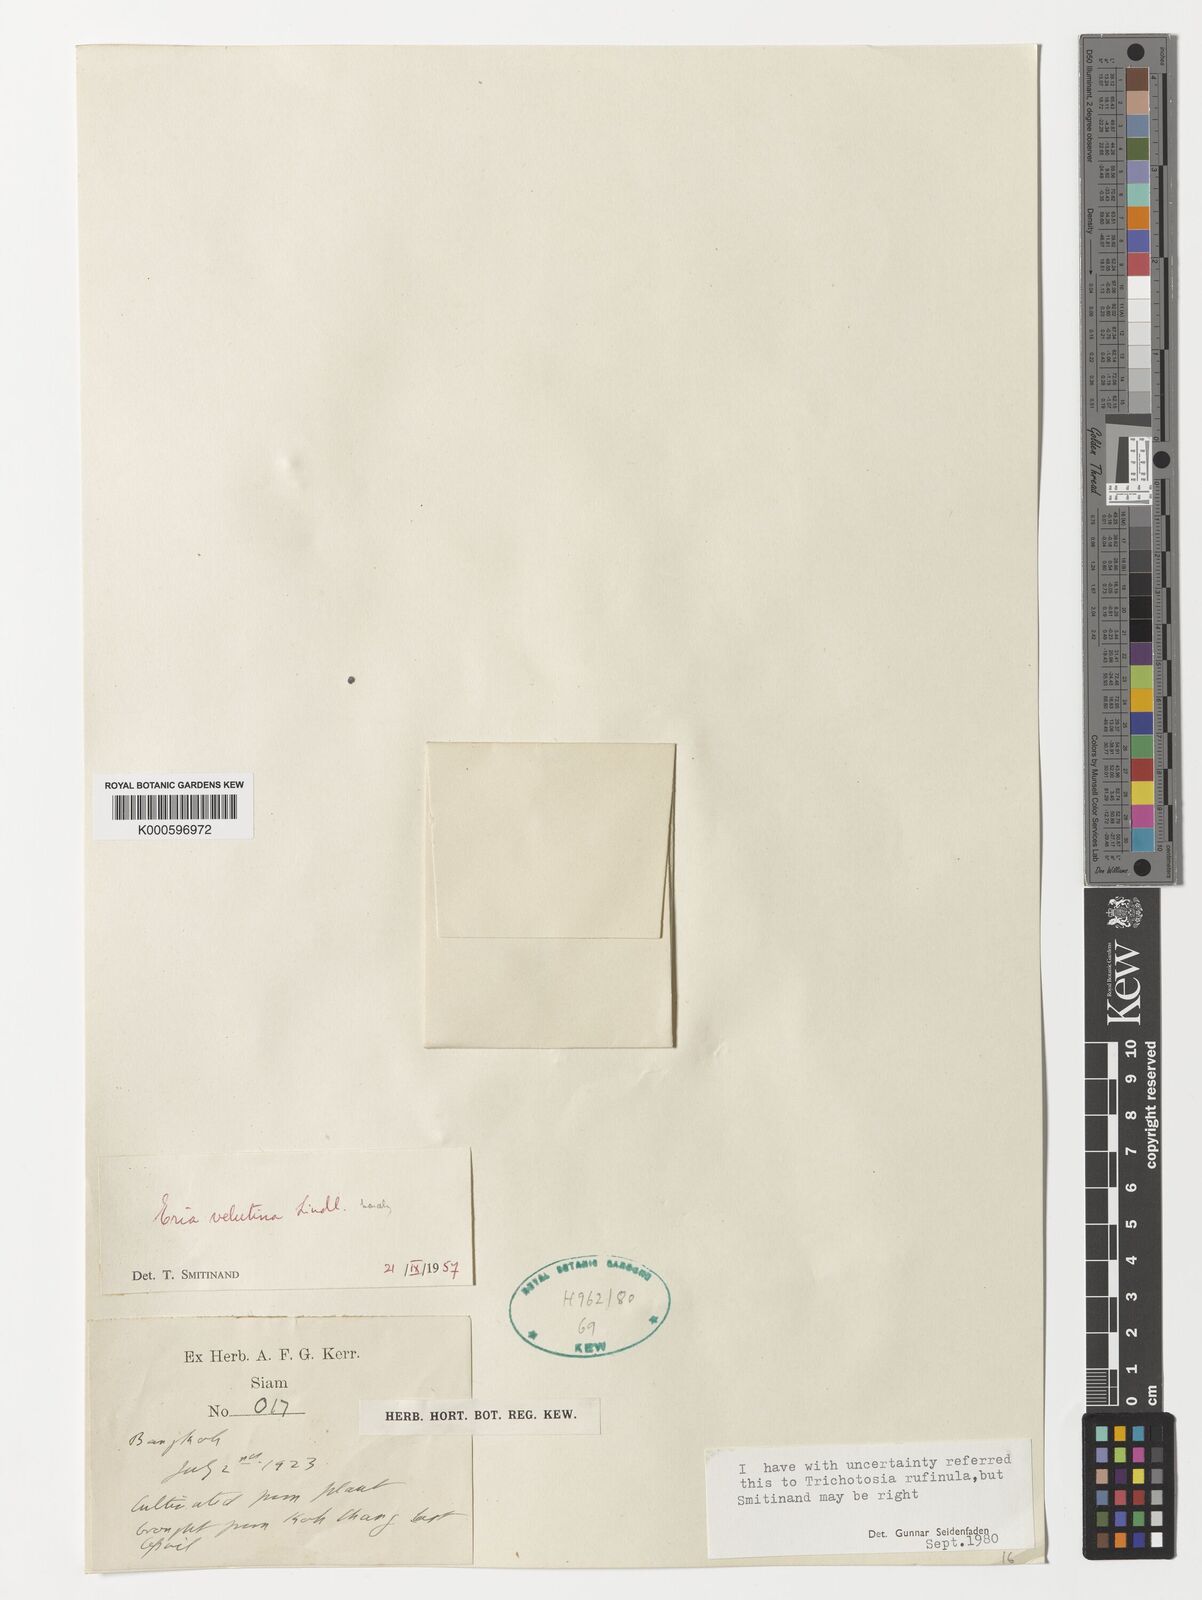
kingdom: Plantae
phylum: Tracheophyta
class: Liliopsida
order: Asparagales
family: Orchidaceae
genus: Trichotosia
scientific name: Trichotosia pulvinata
